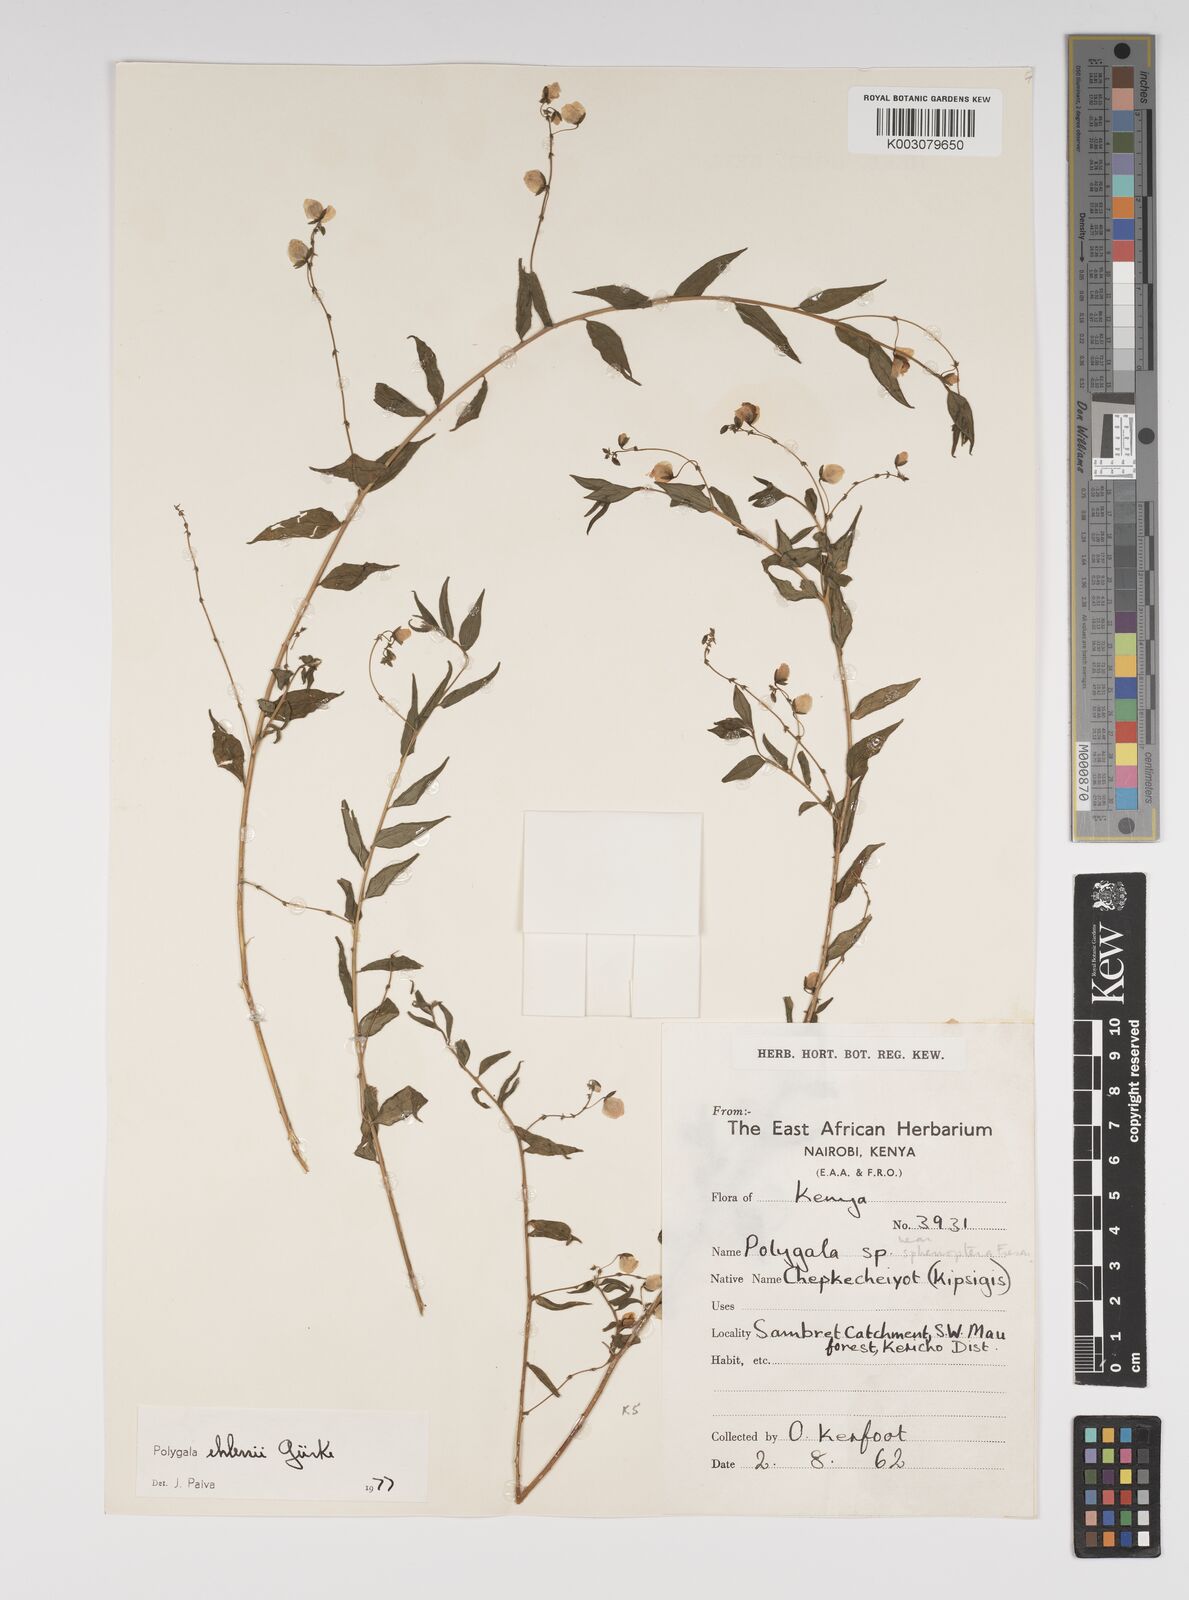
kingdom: Plantae
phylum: Tracheophyta
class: Magnoliopsida
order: Fabales
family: Polygalaceae
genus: Polygala
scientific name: Polygala ehlersii
